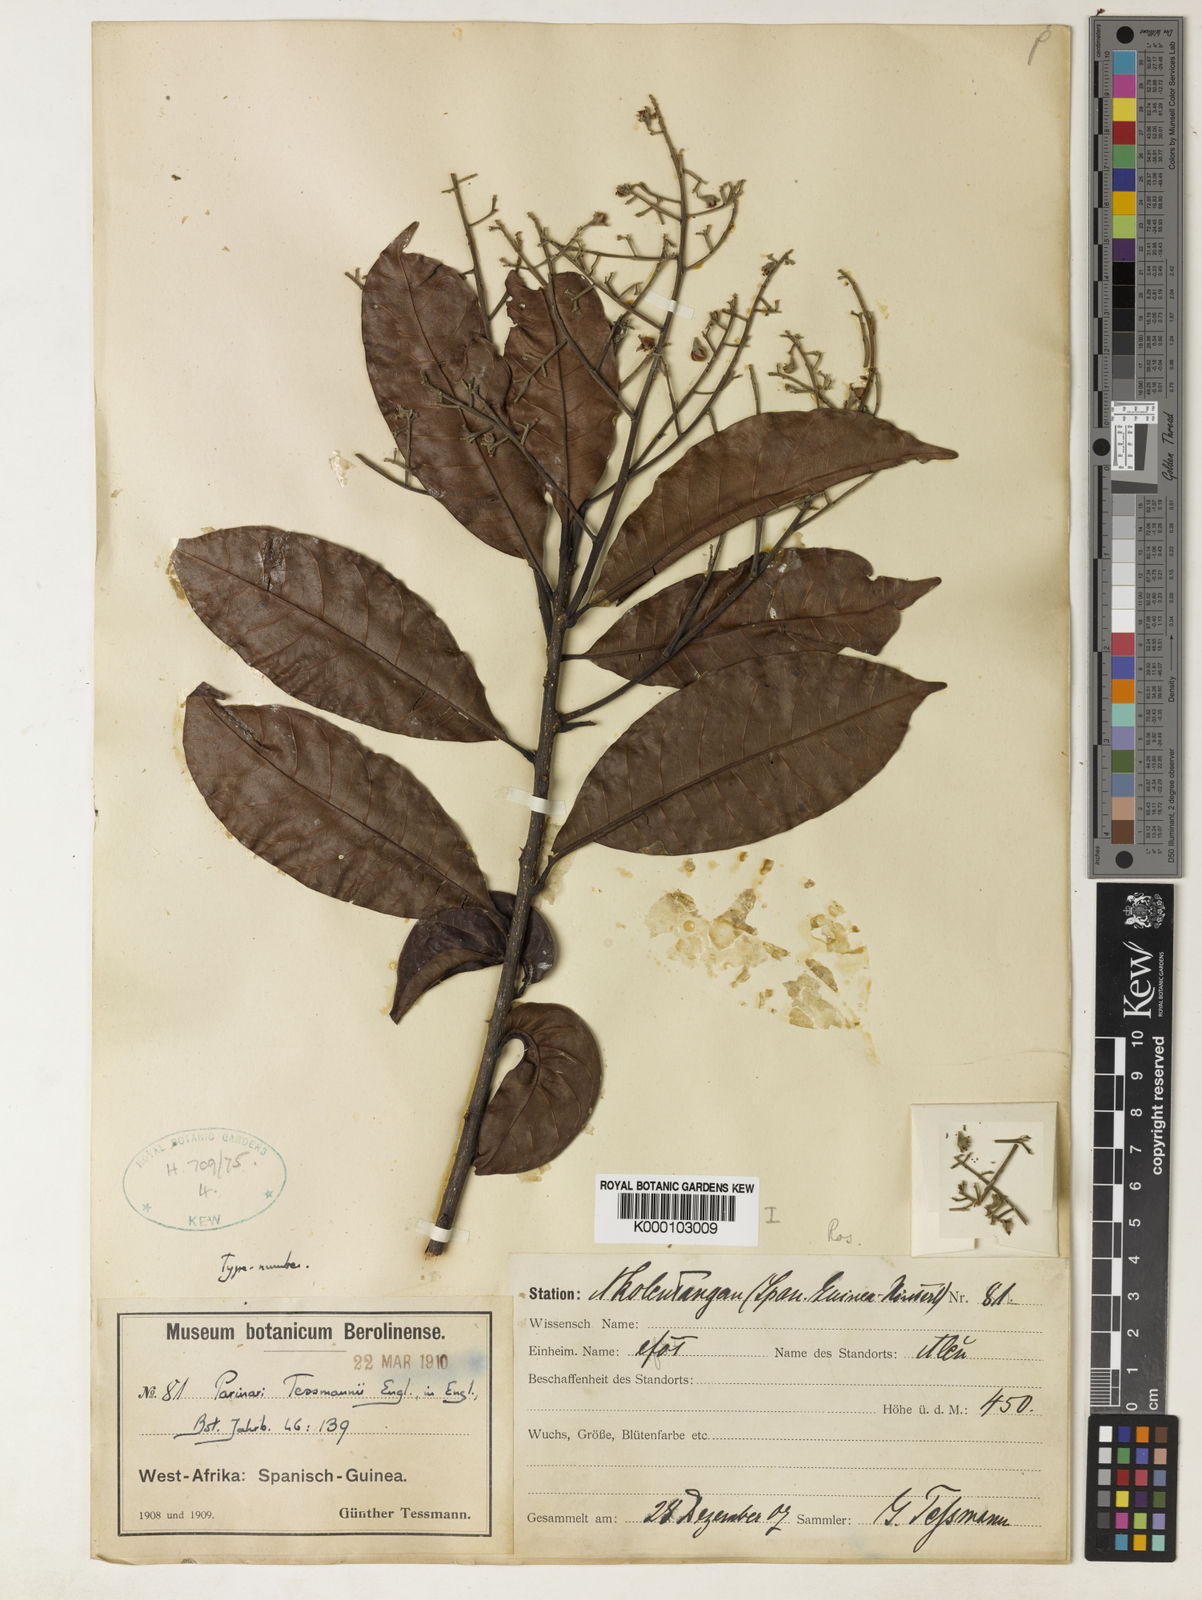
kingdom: Plantae
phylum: Tracheophyta
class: Magnoliopsida
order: Malpighiales
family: Chrysobalanaceae
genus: Magnistipula
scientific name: Magnistipula tessmannii
